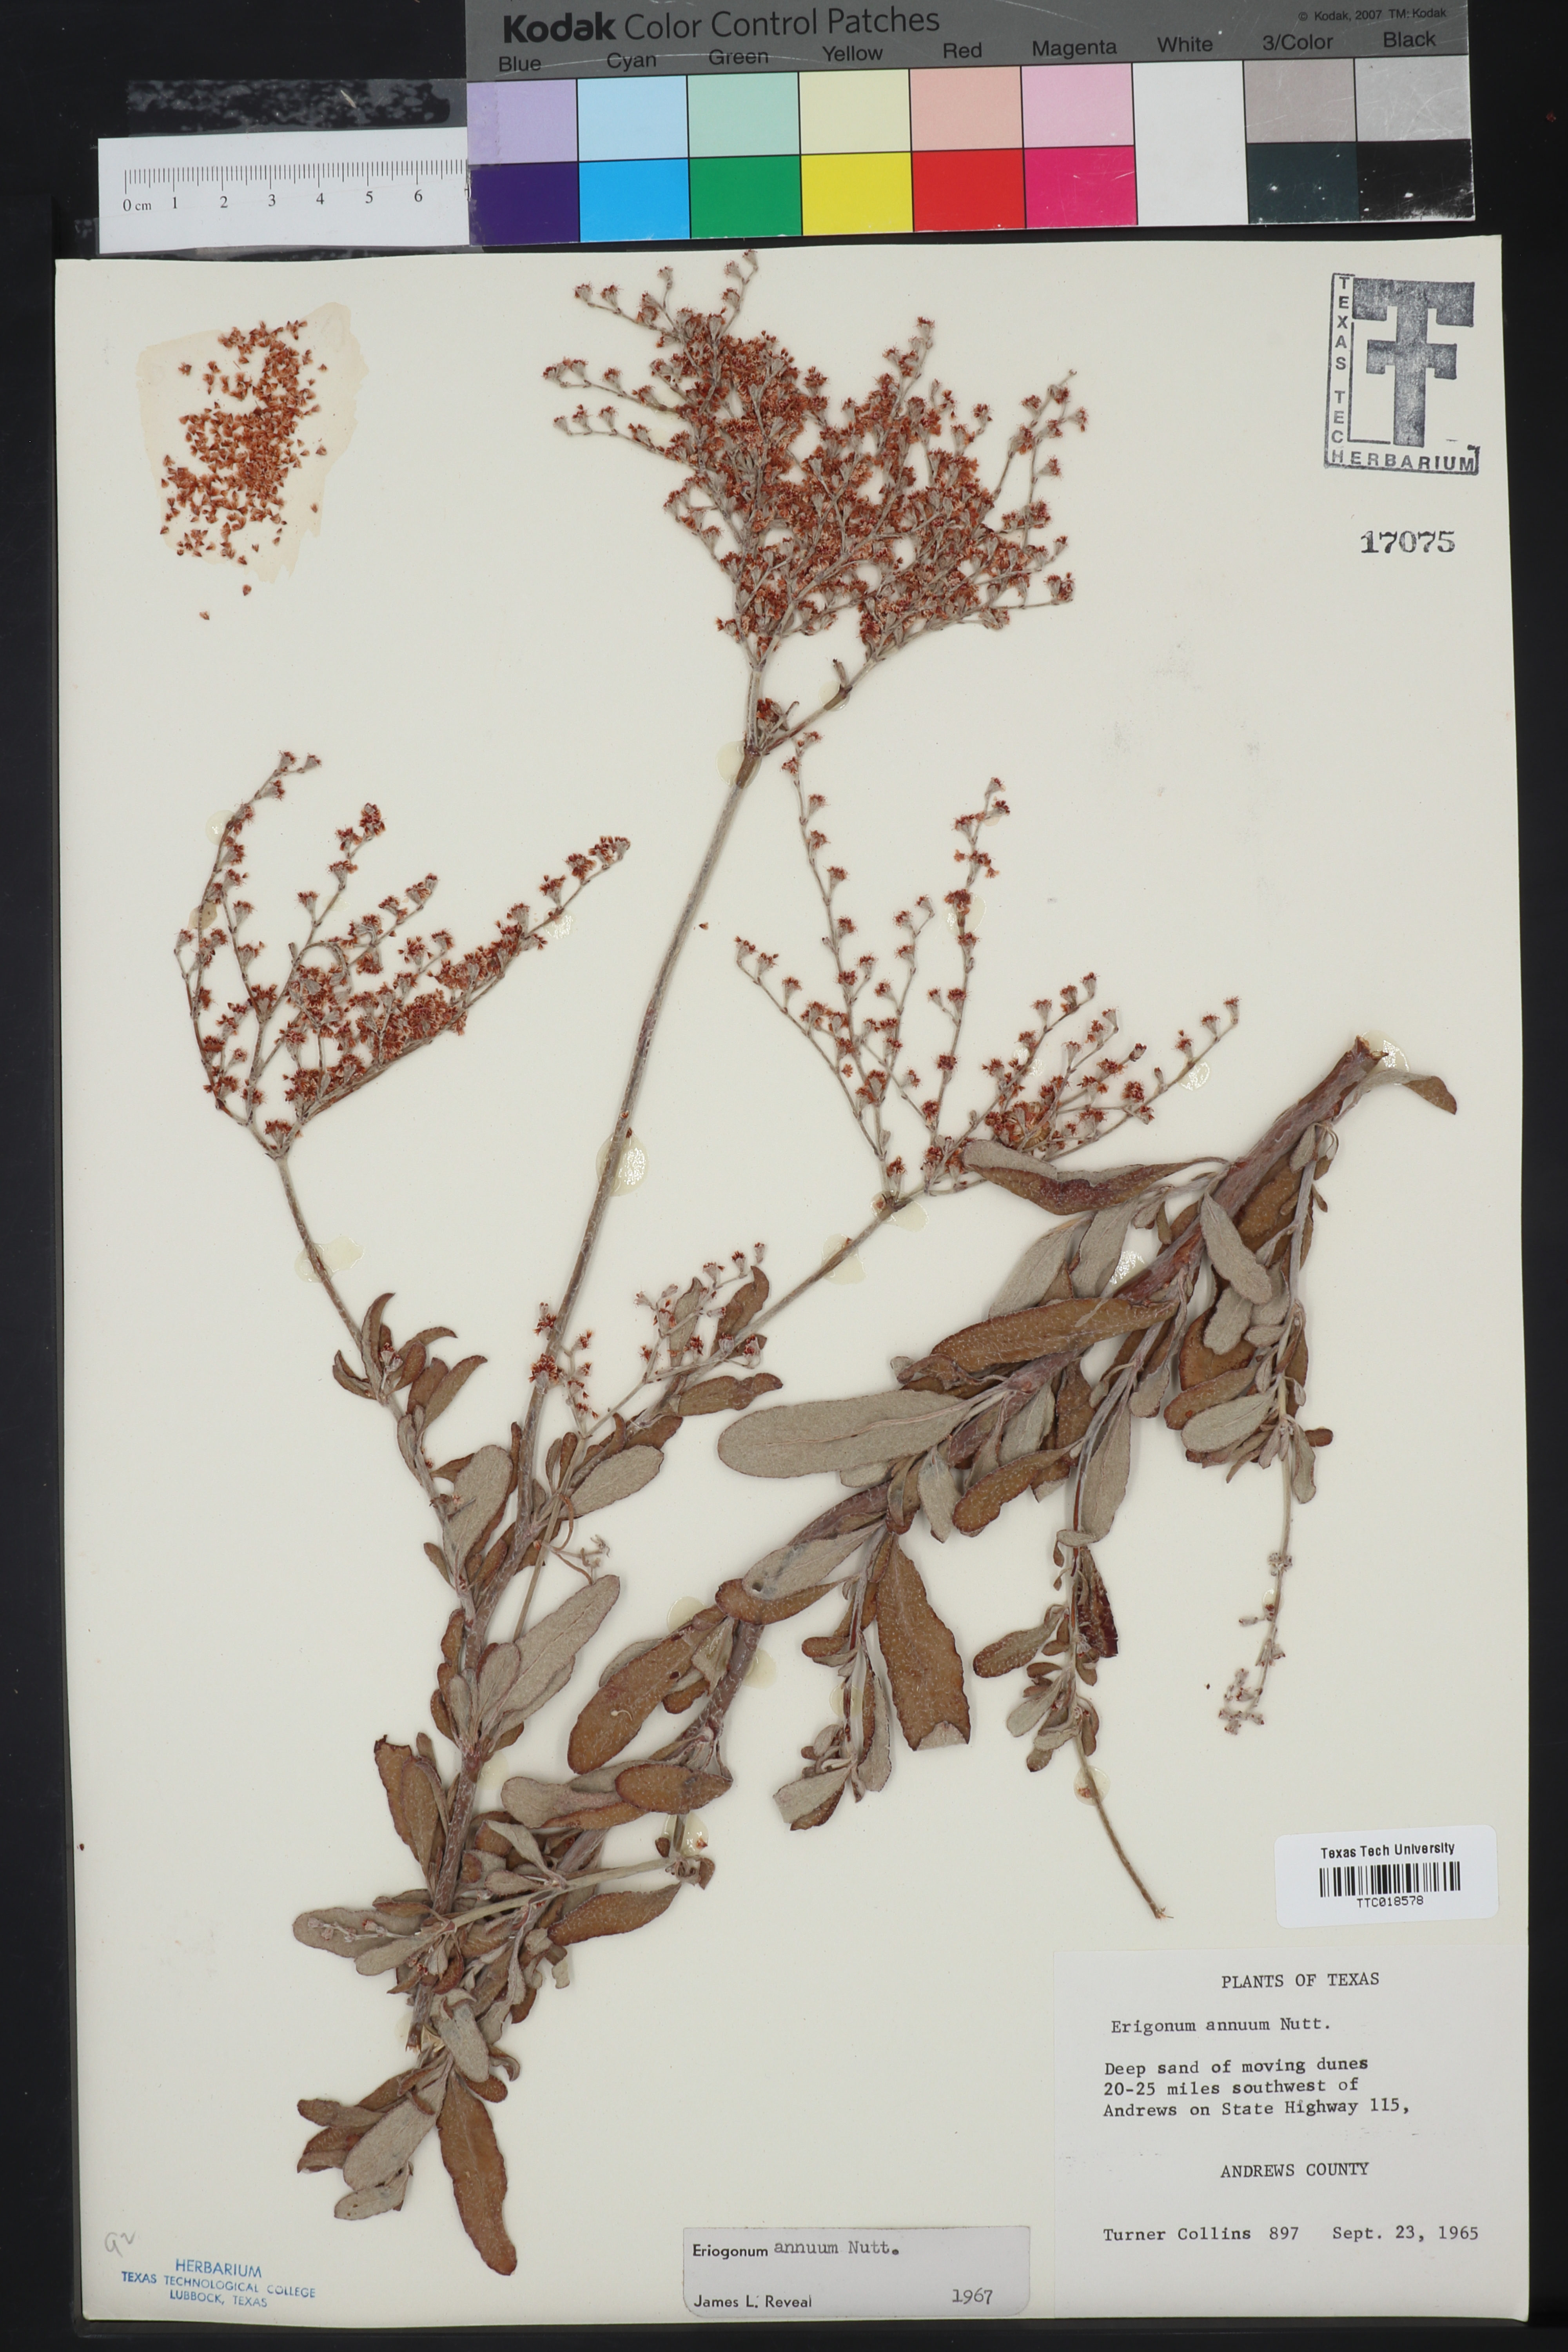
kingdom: Plantae
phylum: Tracheophyta
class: Magnoliopsida
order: Caryophyllales
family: Polygonaceae
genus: Eriogonum
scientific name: Eriogonum annuum
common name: Annual wild buckwheat
